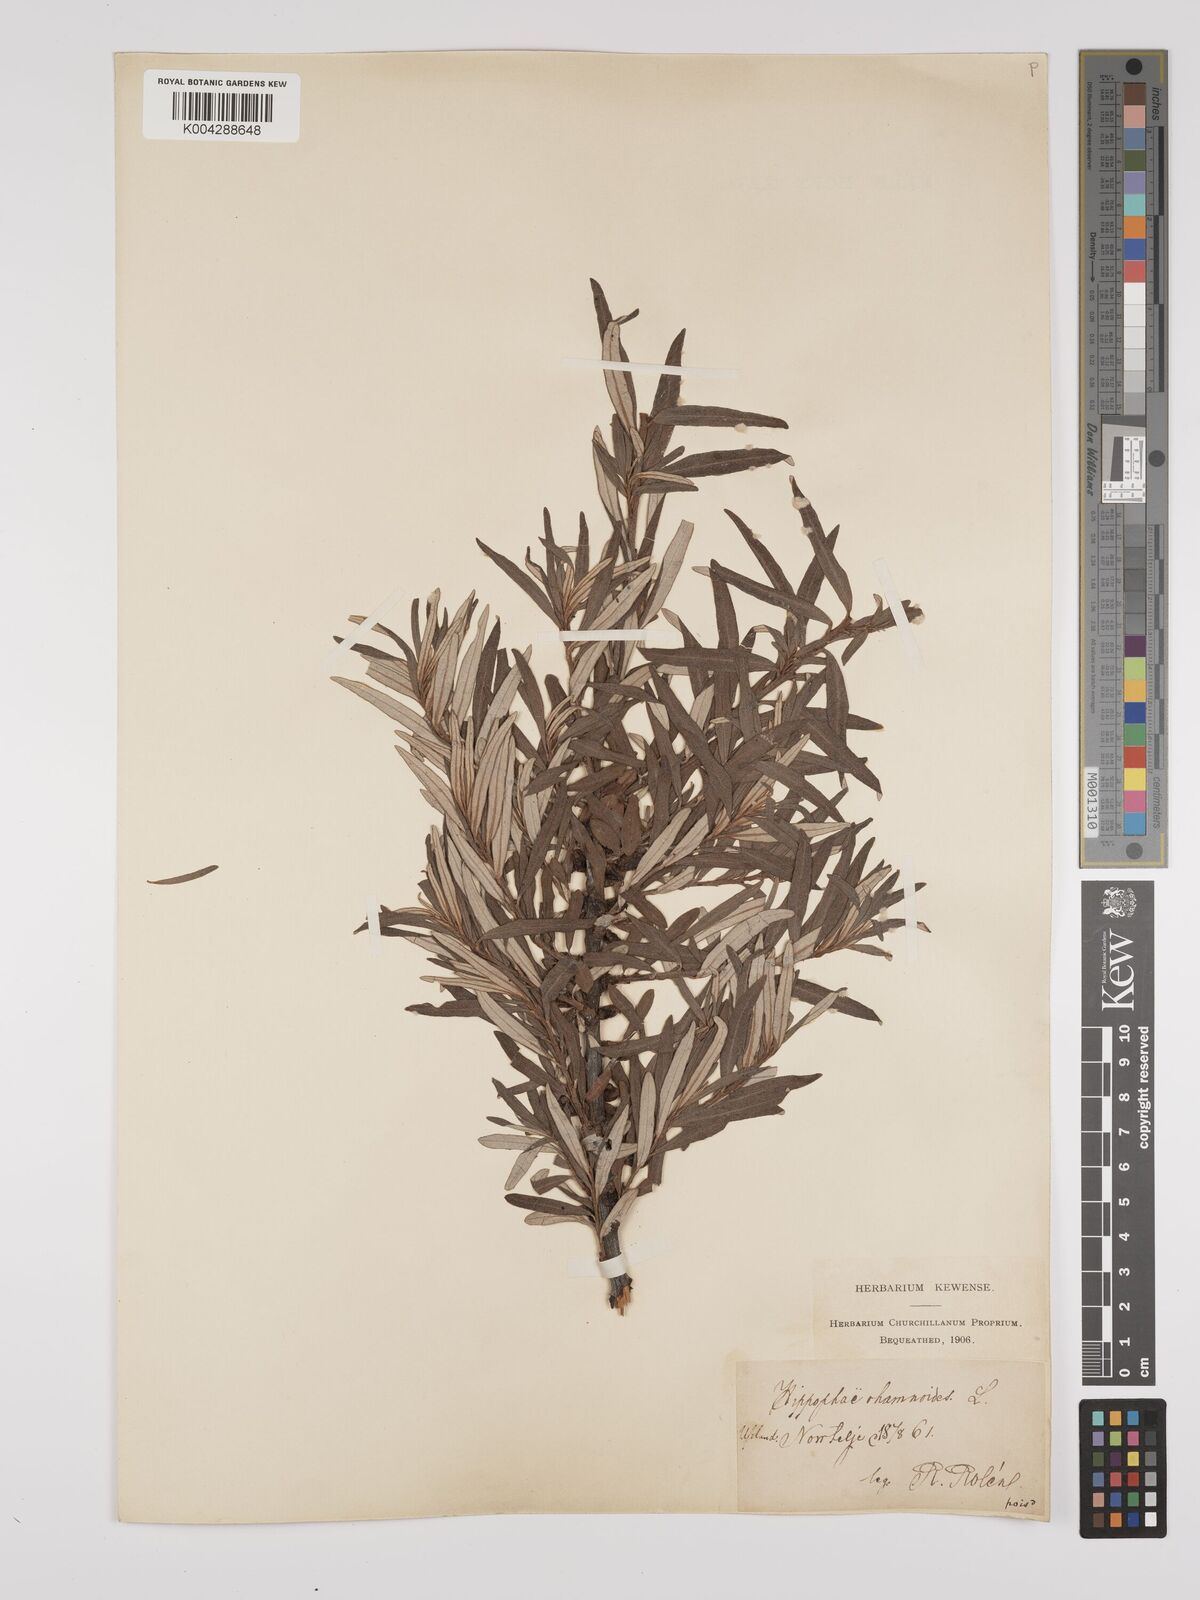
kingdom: Plantae
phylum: Tracheophyta
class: Magnoliopsida
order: Rosales
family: Elaeagnaceae
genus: Hippophae
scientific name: Hippophae rhamnoides
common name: Sea-buckthorn
